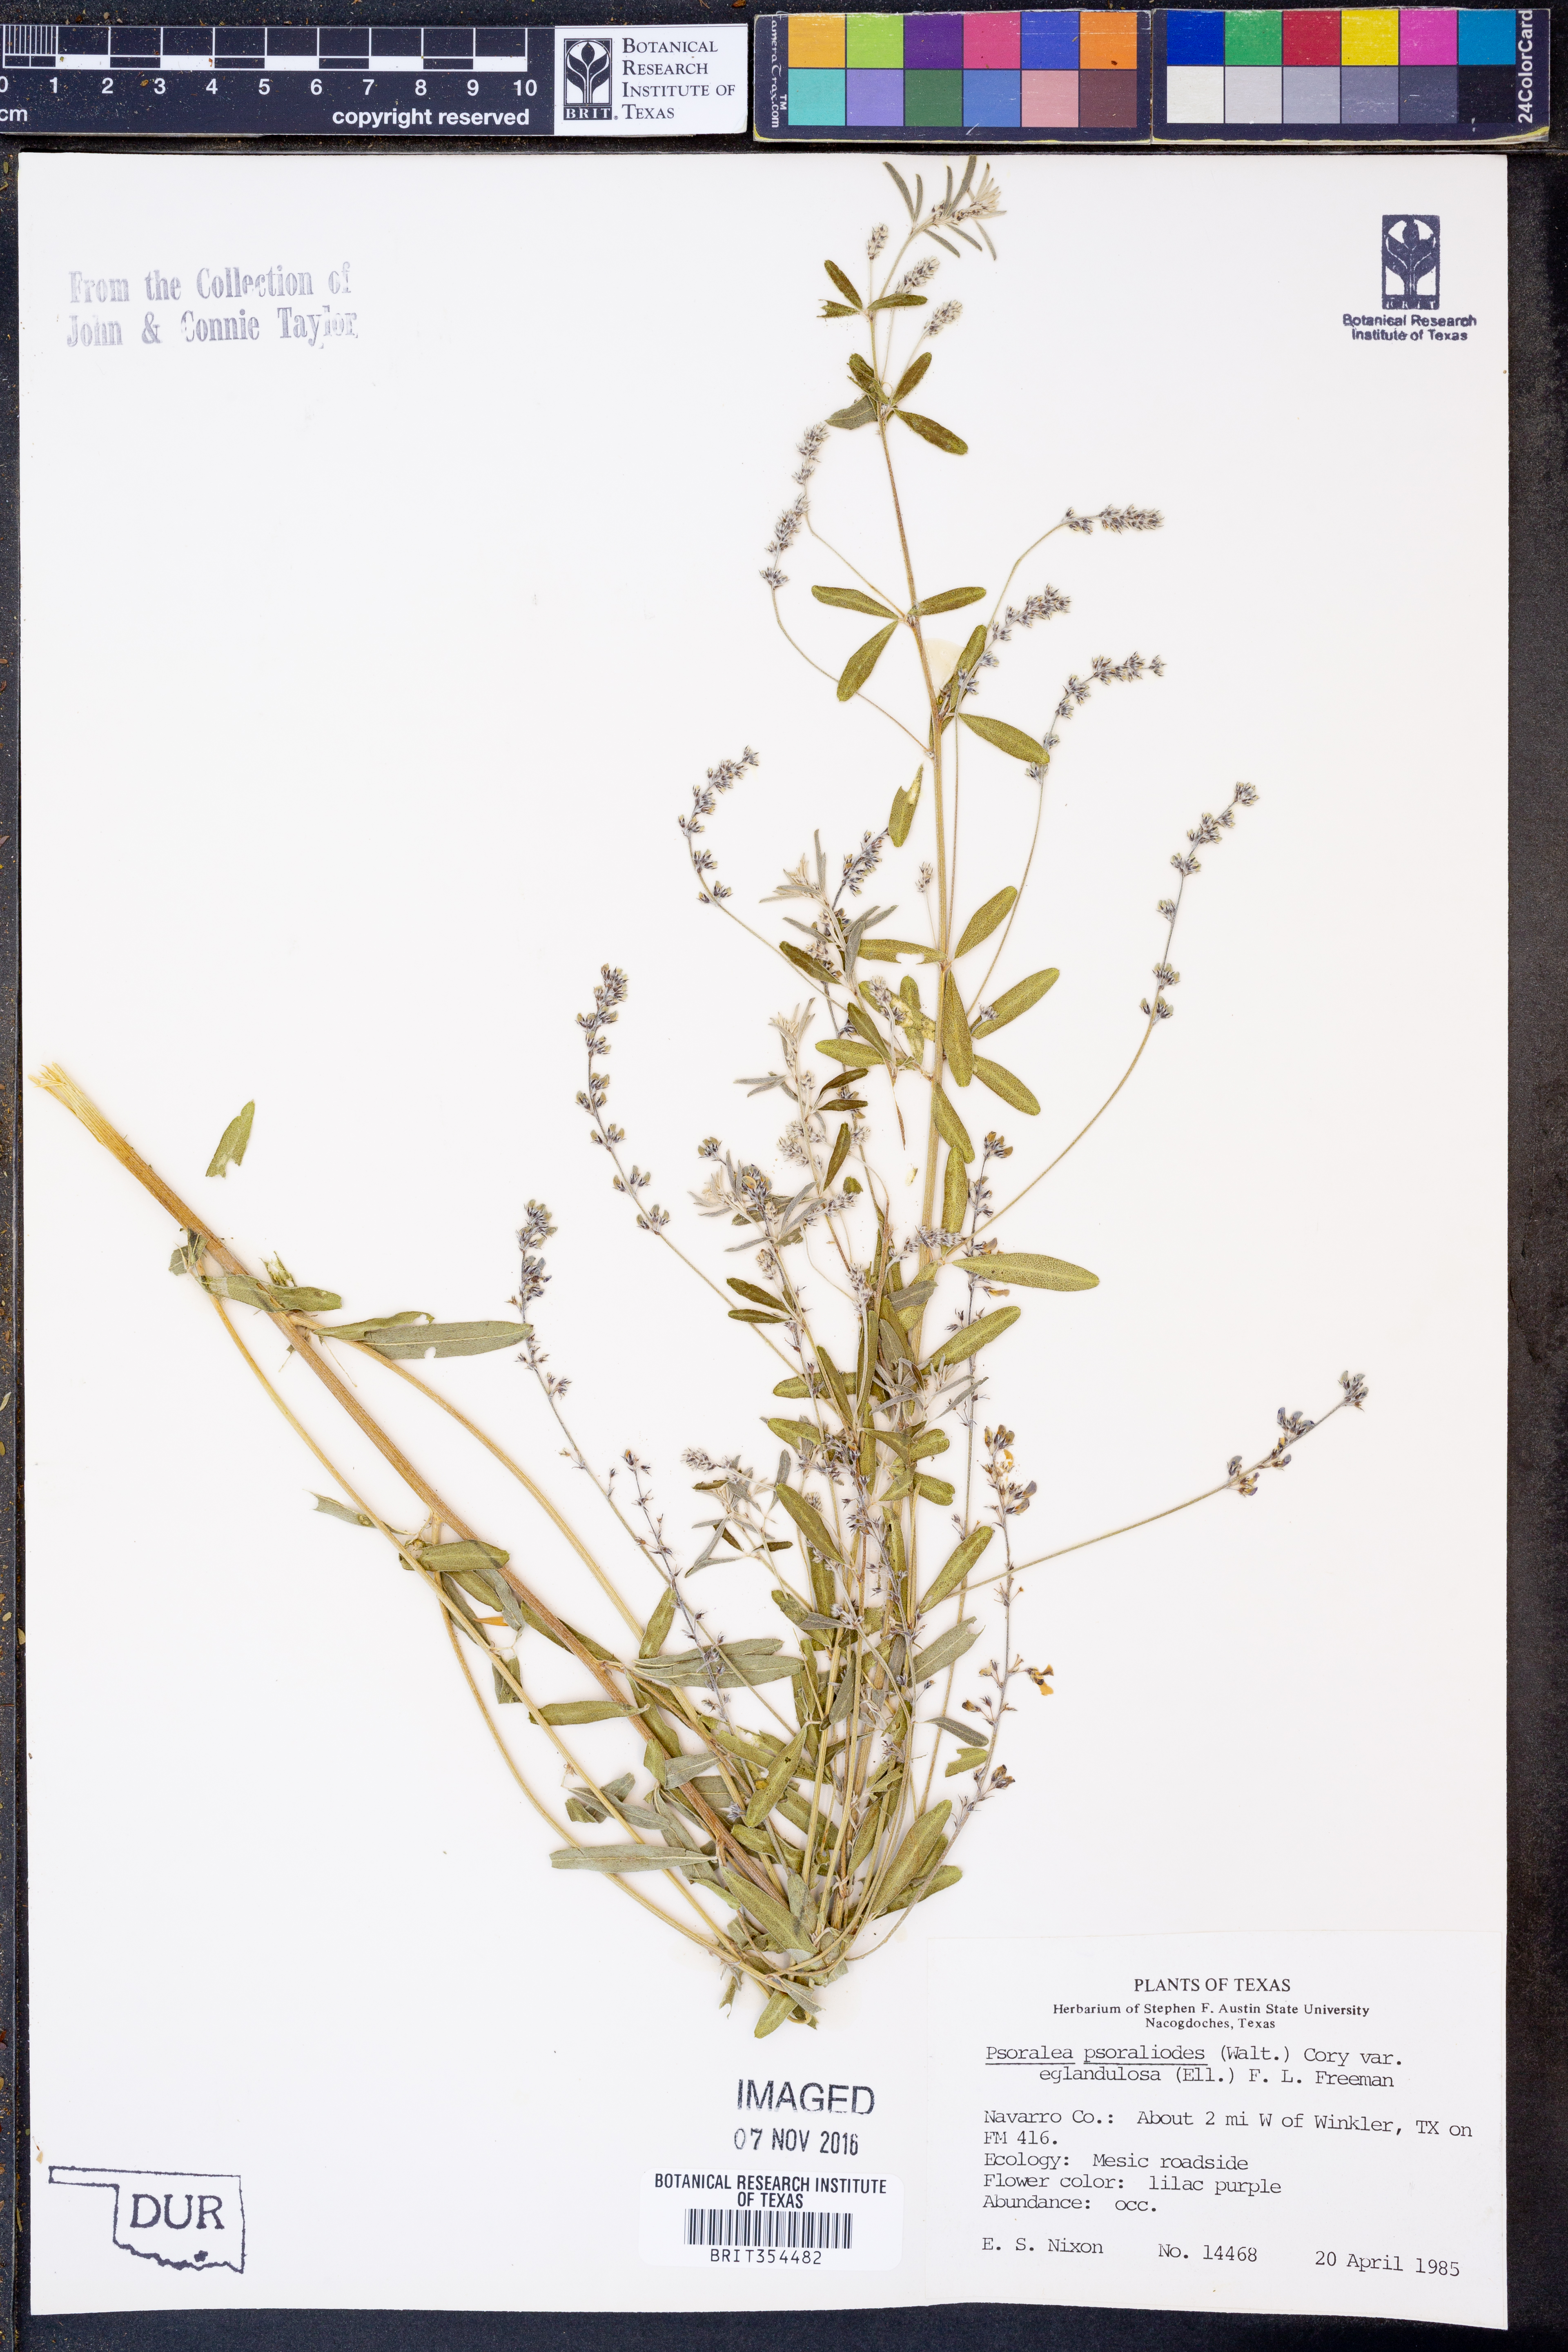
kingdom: Plantae
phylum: Tracheophyta
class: Magnoliopsida
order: Fabales
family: Fabaceae
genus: Orbexilum
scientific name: Orbexilum pedunculatum
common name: Sampson's snakeroot
